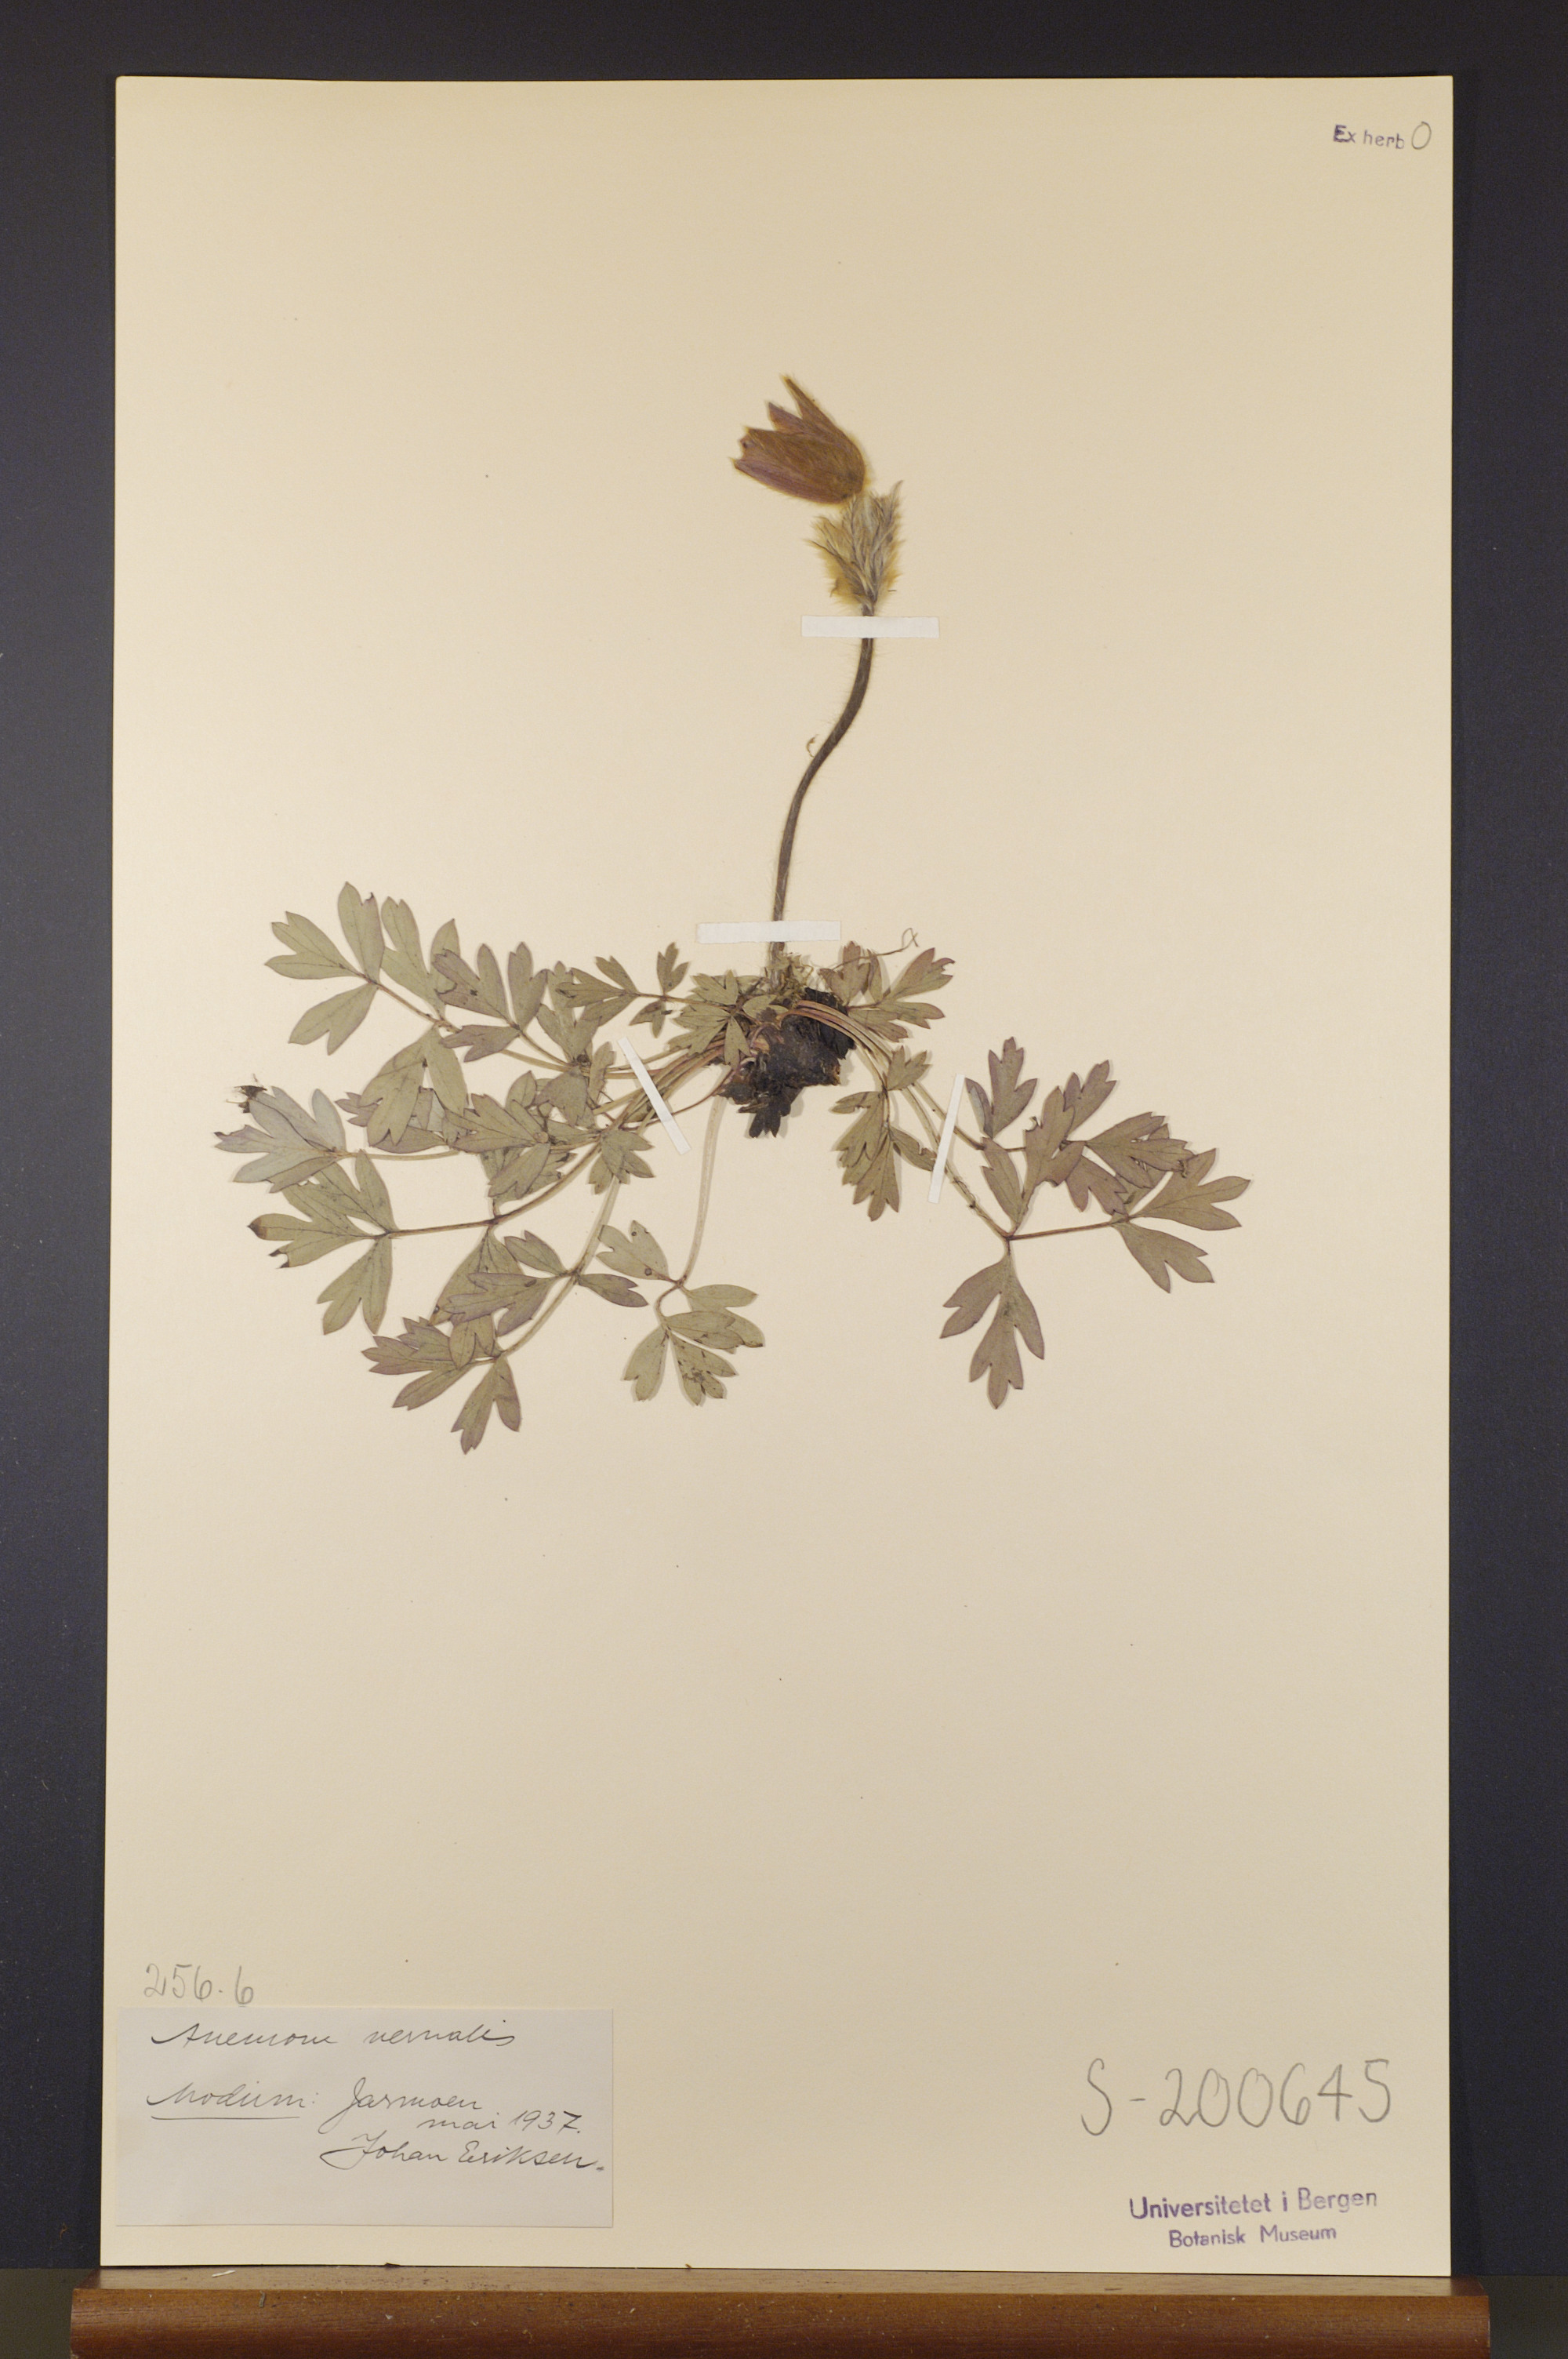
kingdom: Plantae
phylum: Tracheophyta
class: Magnoliopsida
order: Ranunculales
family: Ranunculaceae
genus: Pulsatilla
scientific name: Pulsatilla vernalis
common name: Spring pasque flower
